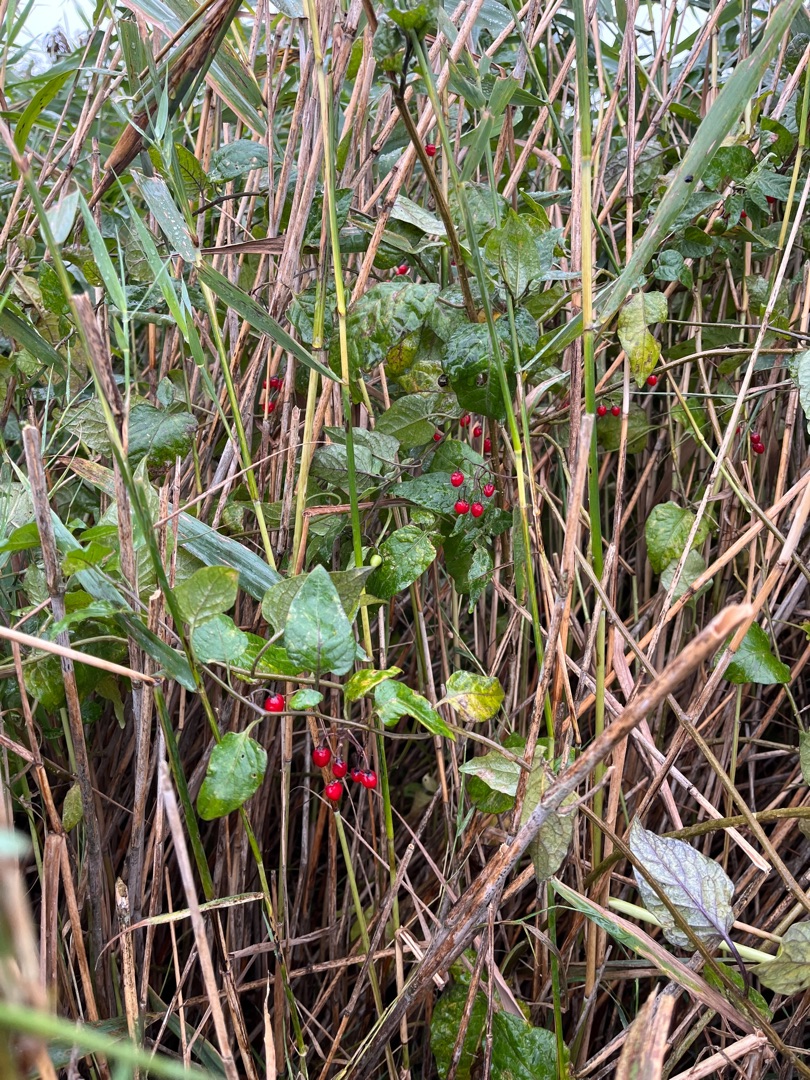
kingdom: Plantae
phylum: Tracheophyta
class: Magnoliopsida
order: Solanales
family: Solanaceae
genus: Solanum
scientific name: Solanum dulcamara
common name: Bittersød natskygge
